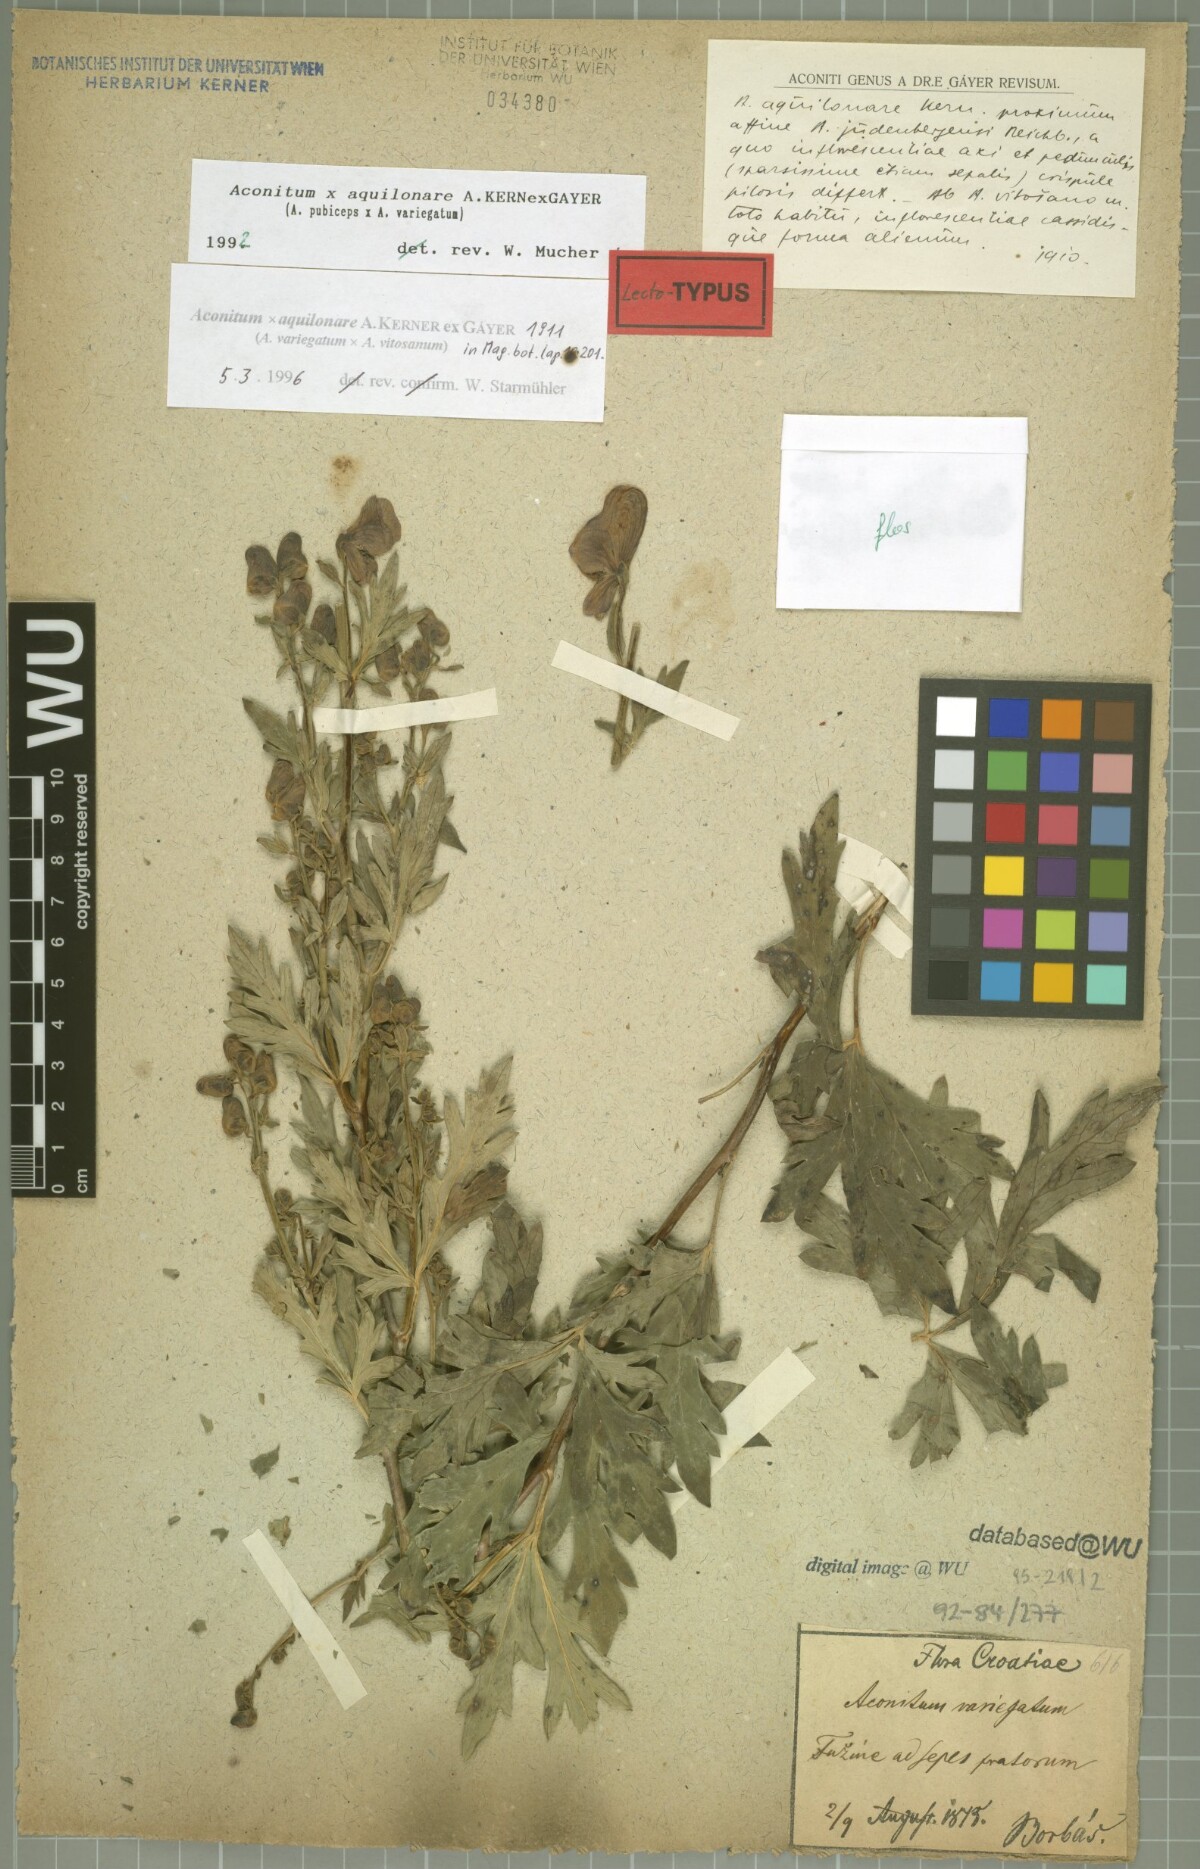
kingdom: Plantae
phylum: Tracheophyta
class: Magnoliopsida
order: Ranunculales
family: Ranunculaceae
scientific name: Ranunculaceae
